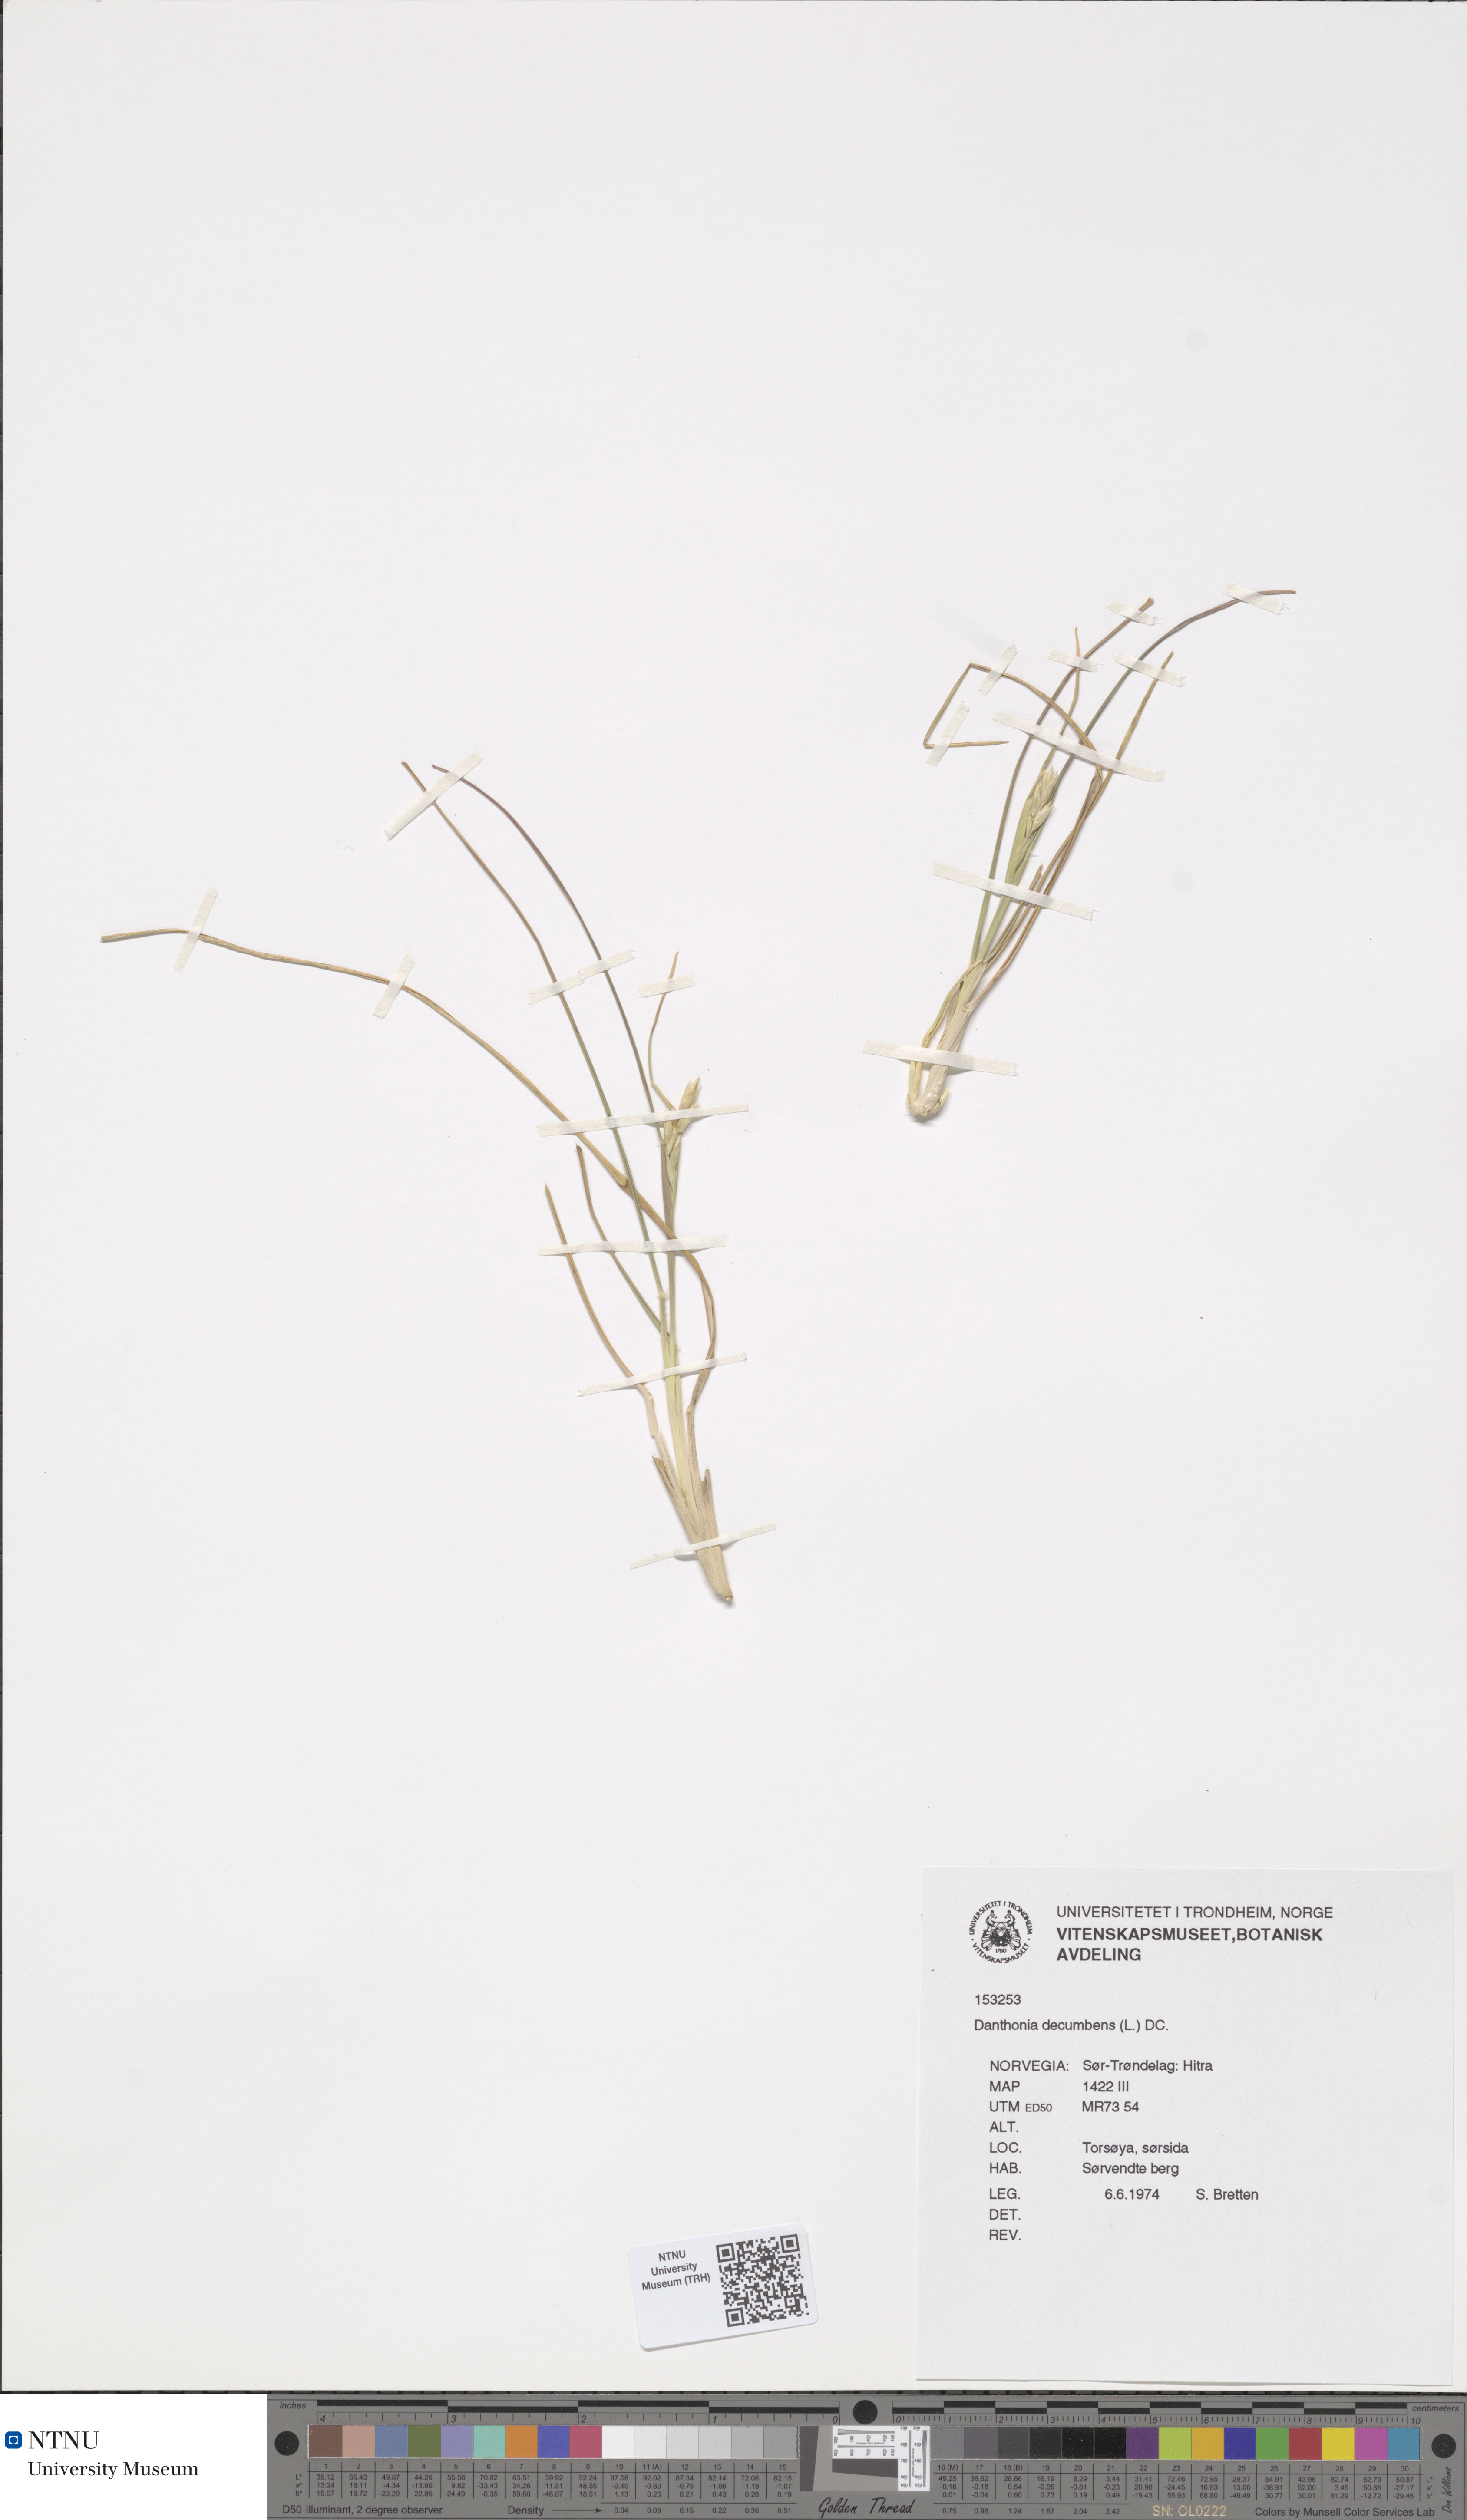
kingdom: Plantae
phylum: Tracheophyta
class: Liliopsida
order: Poales
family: Poaceae
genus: Danthonia
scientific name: Danthonia decumbens
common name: Common heathgrass
